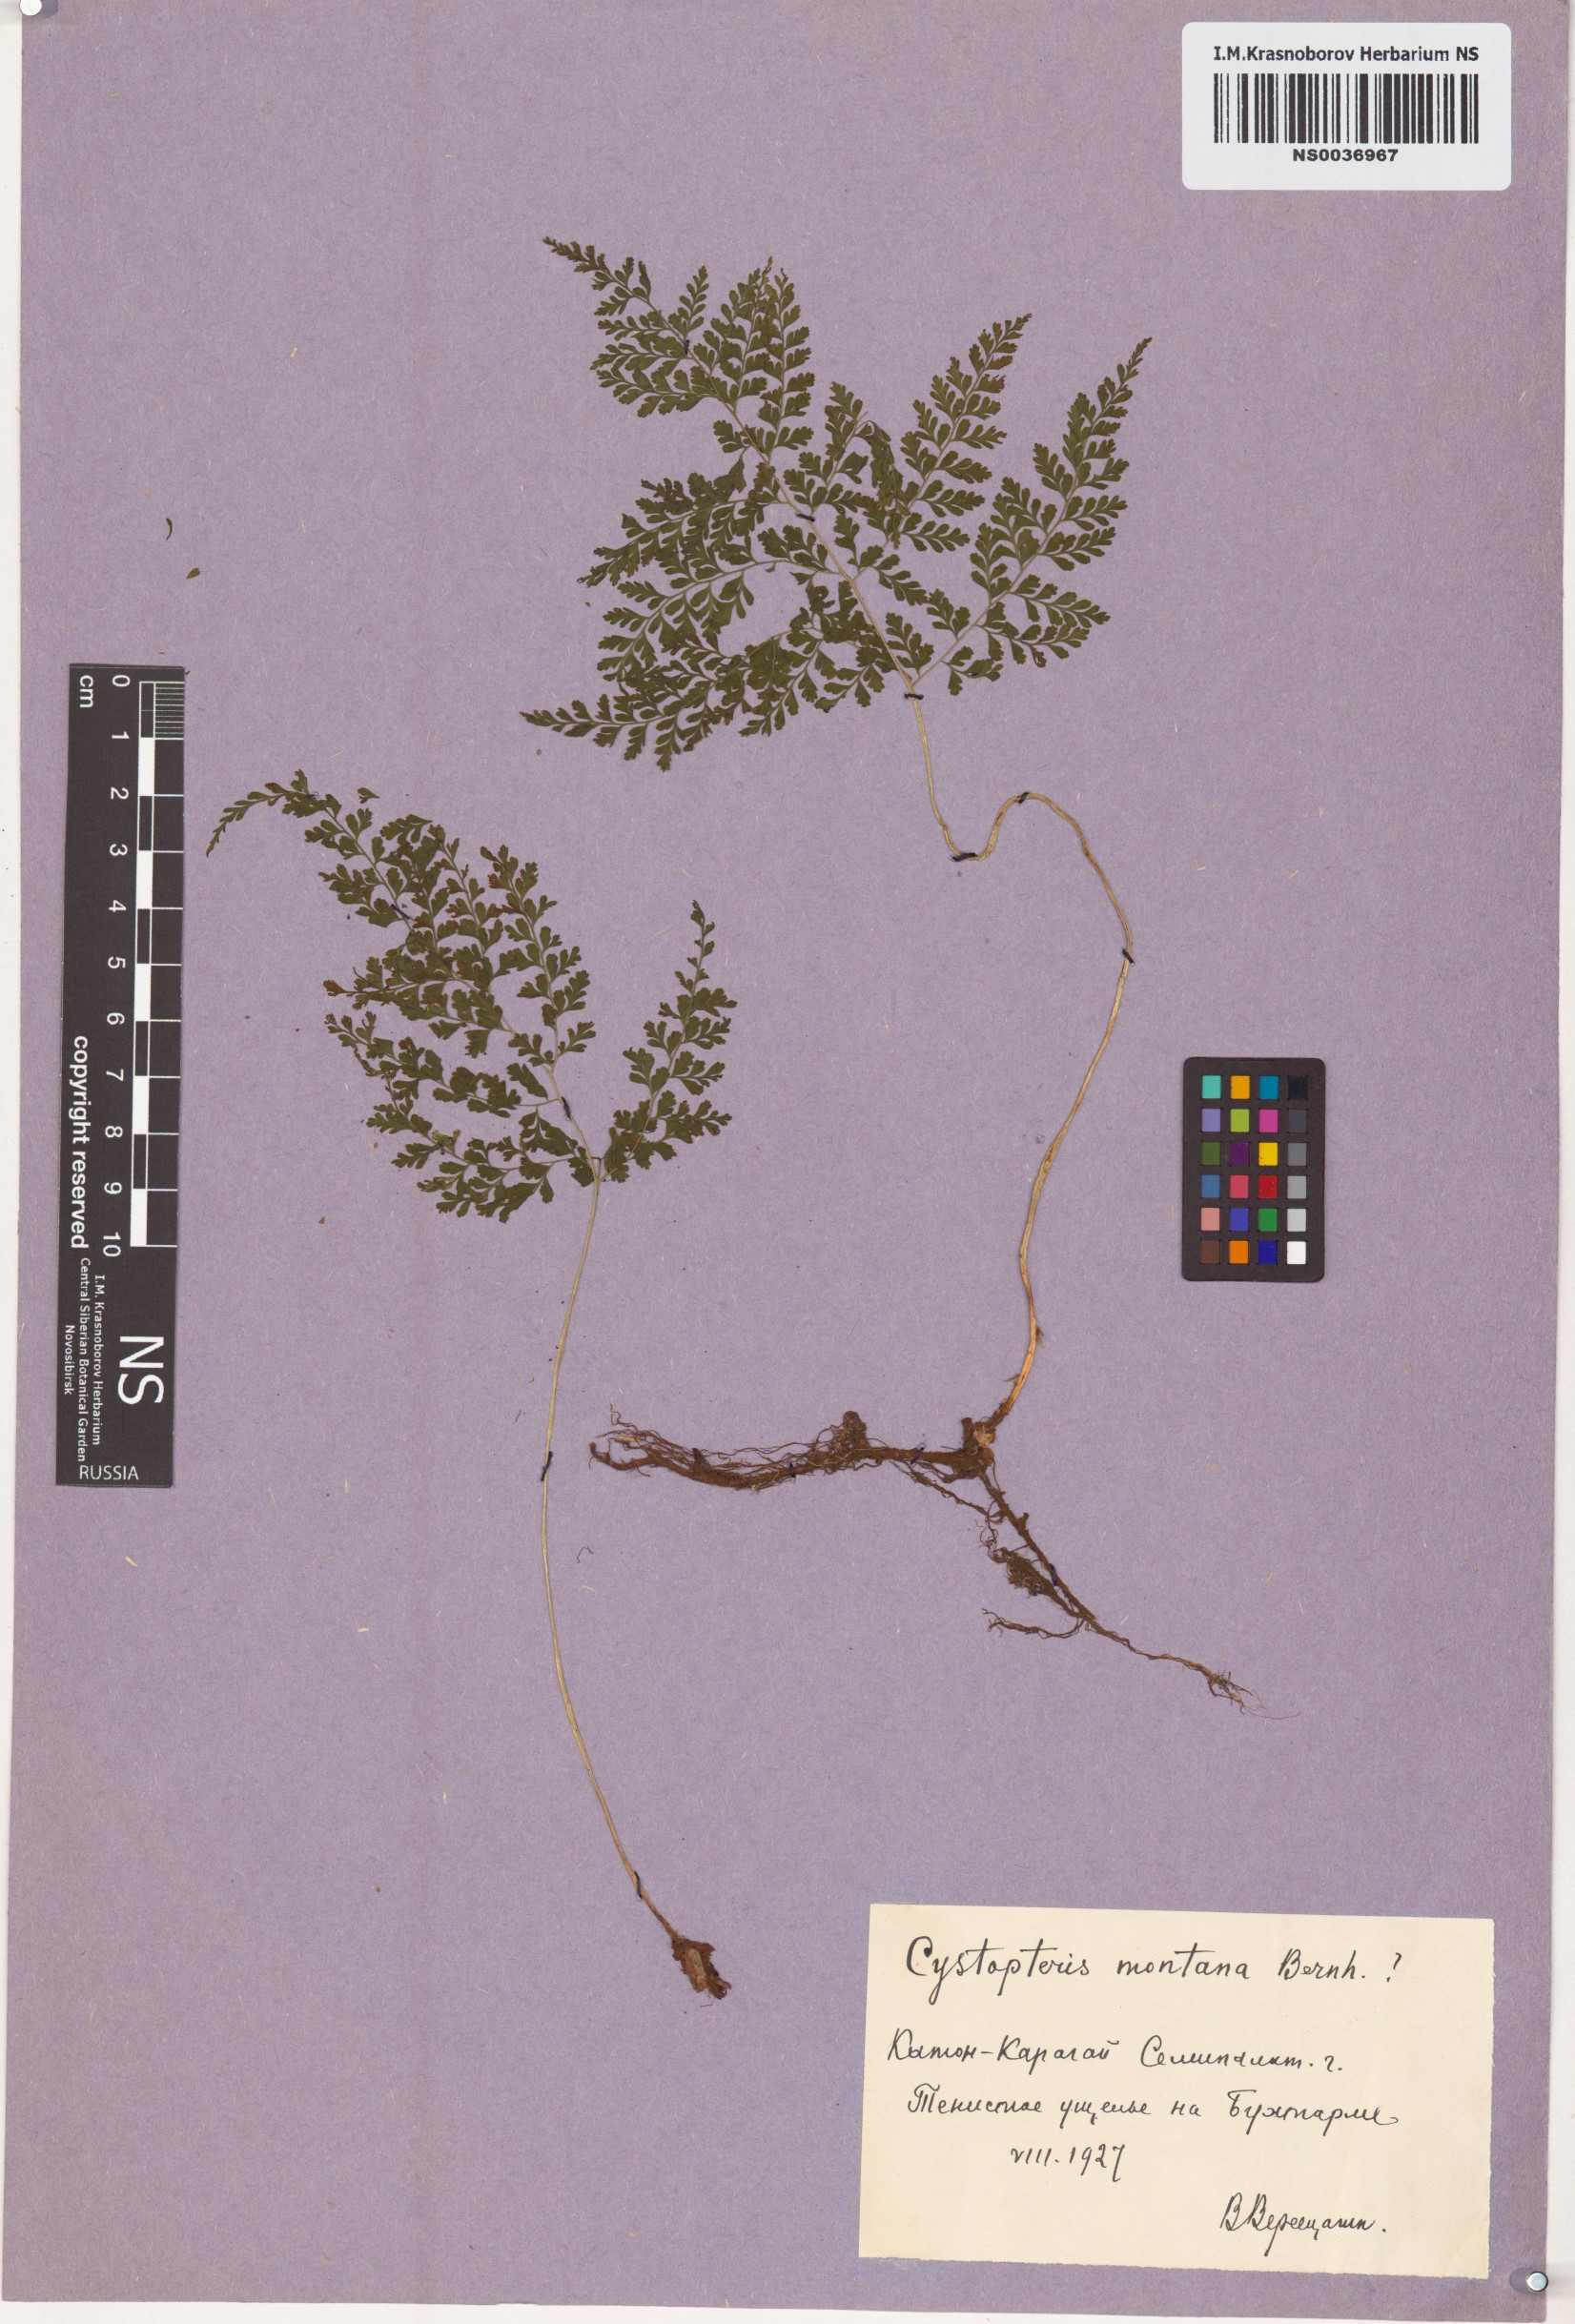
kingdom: Plantae
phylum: Tracheophyta
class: Polypodiopsida
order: Polypodiales
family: Cystopteridaceae
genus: Cystopteris
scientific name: Cystopteris montana
